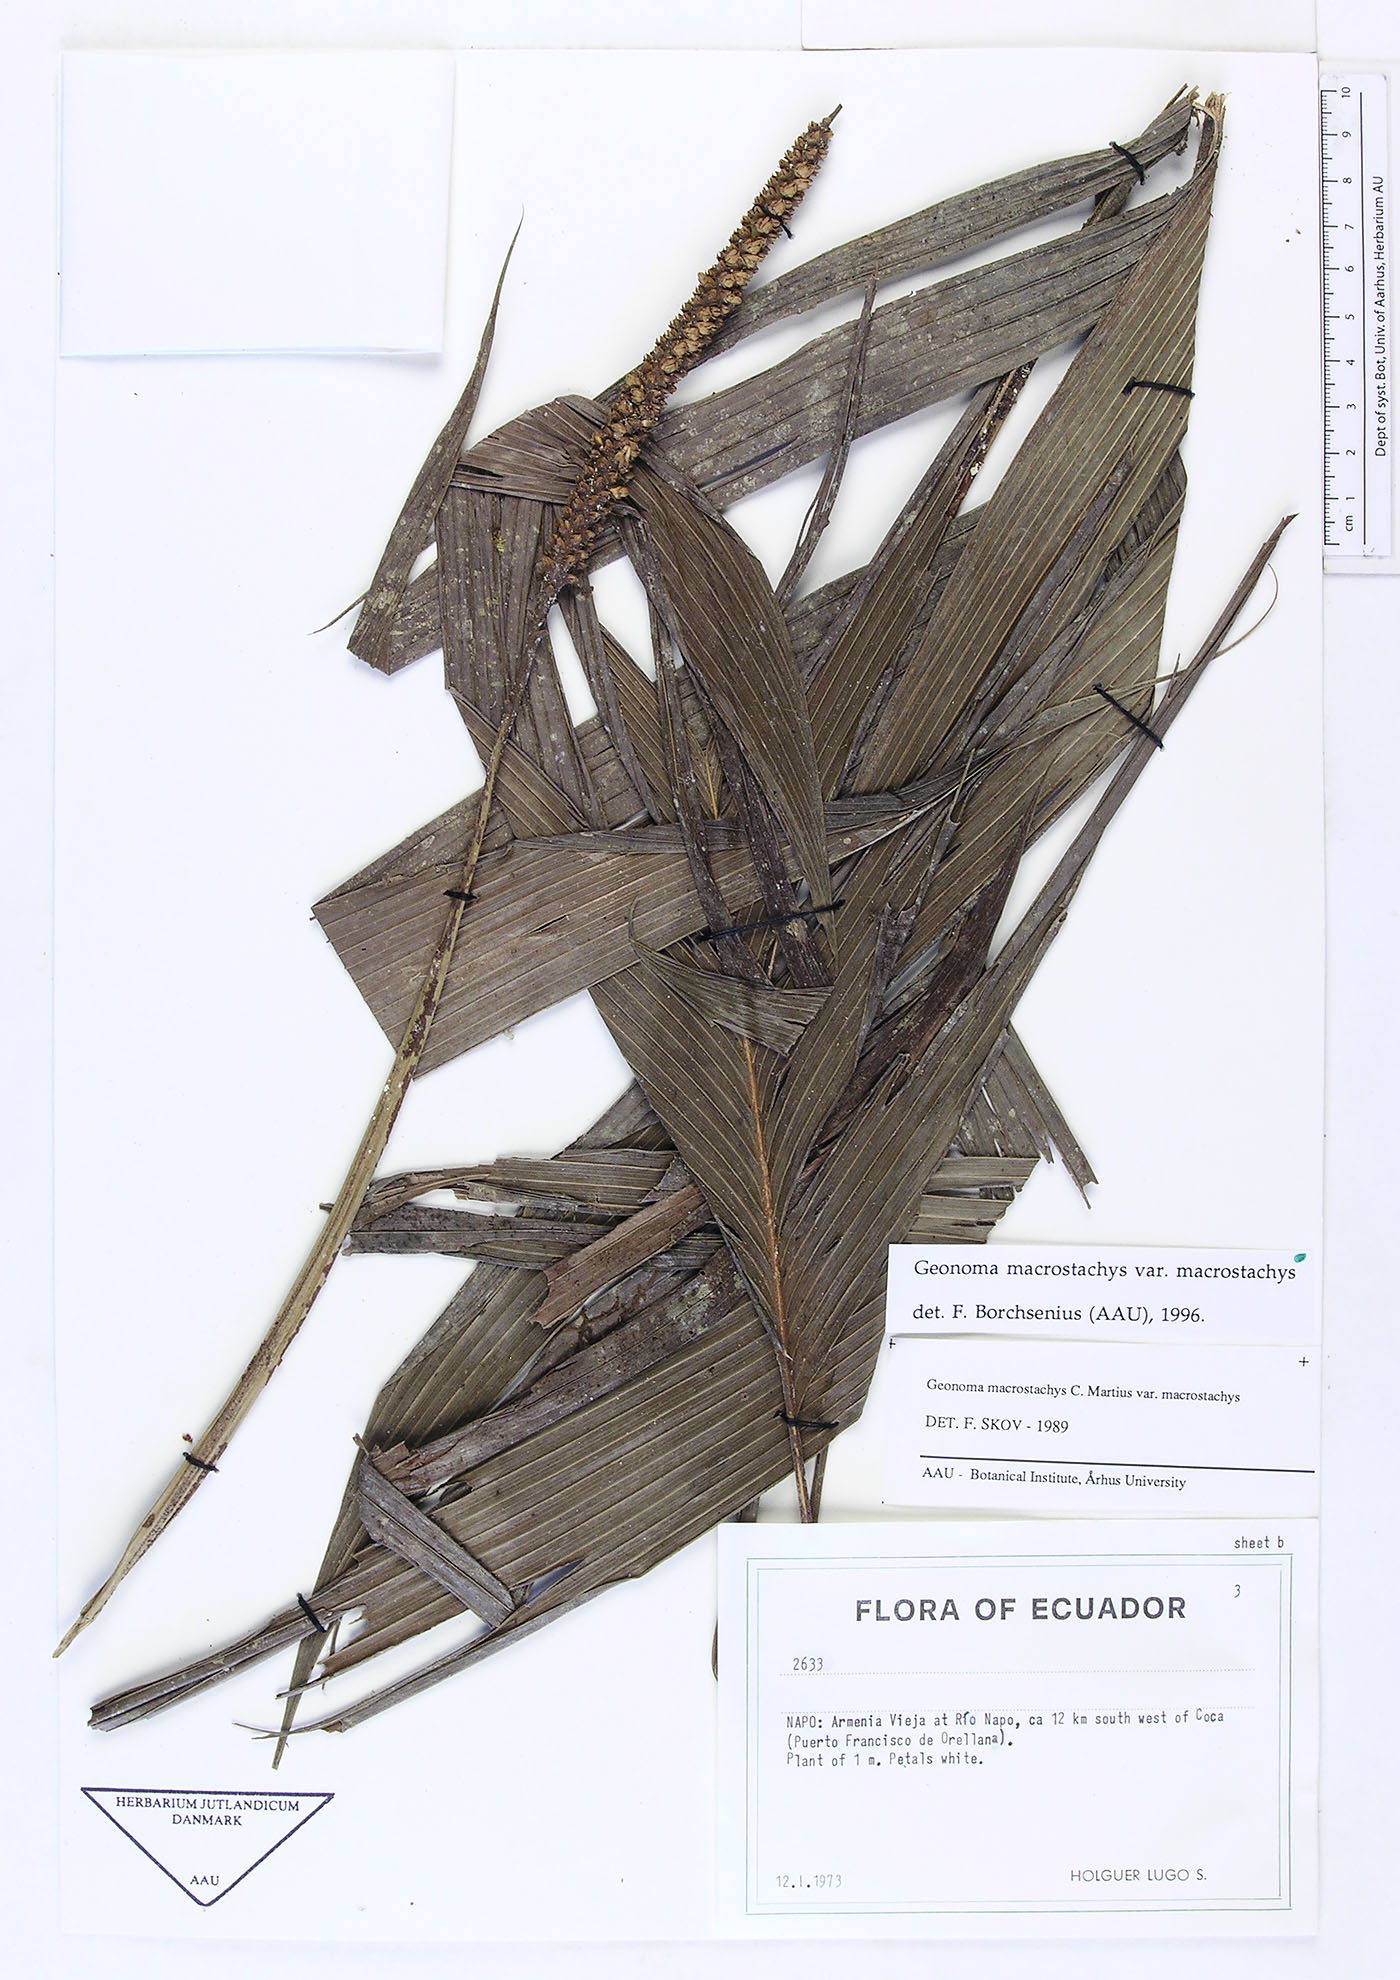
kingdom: Plantae
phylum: Tracheophyta
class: Liliopsida
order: Arecales
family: Arecaceae
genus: Geonoma
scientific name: Geonoma macrostachys
